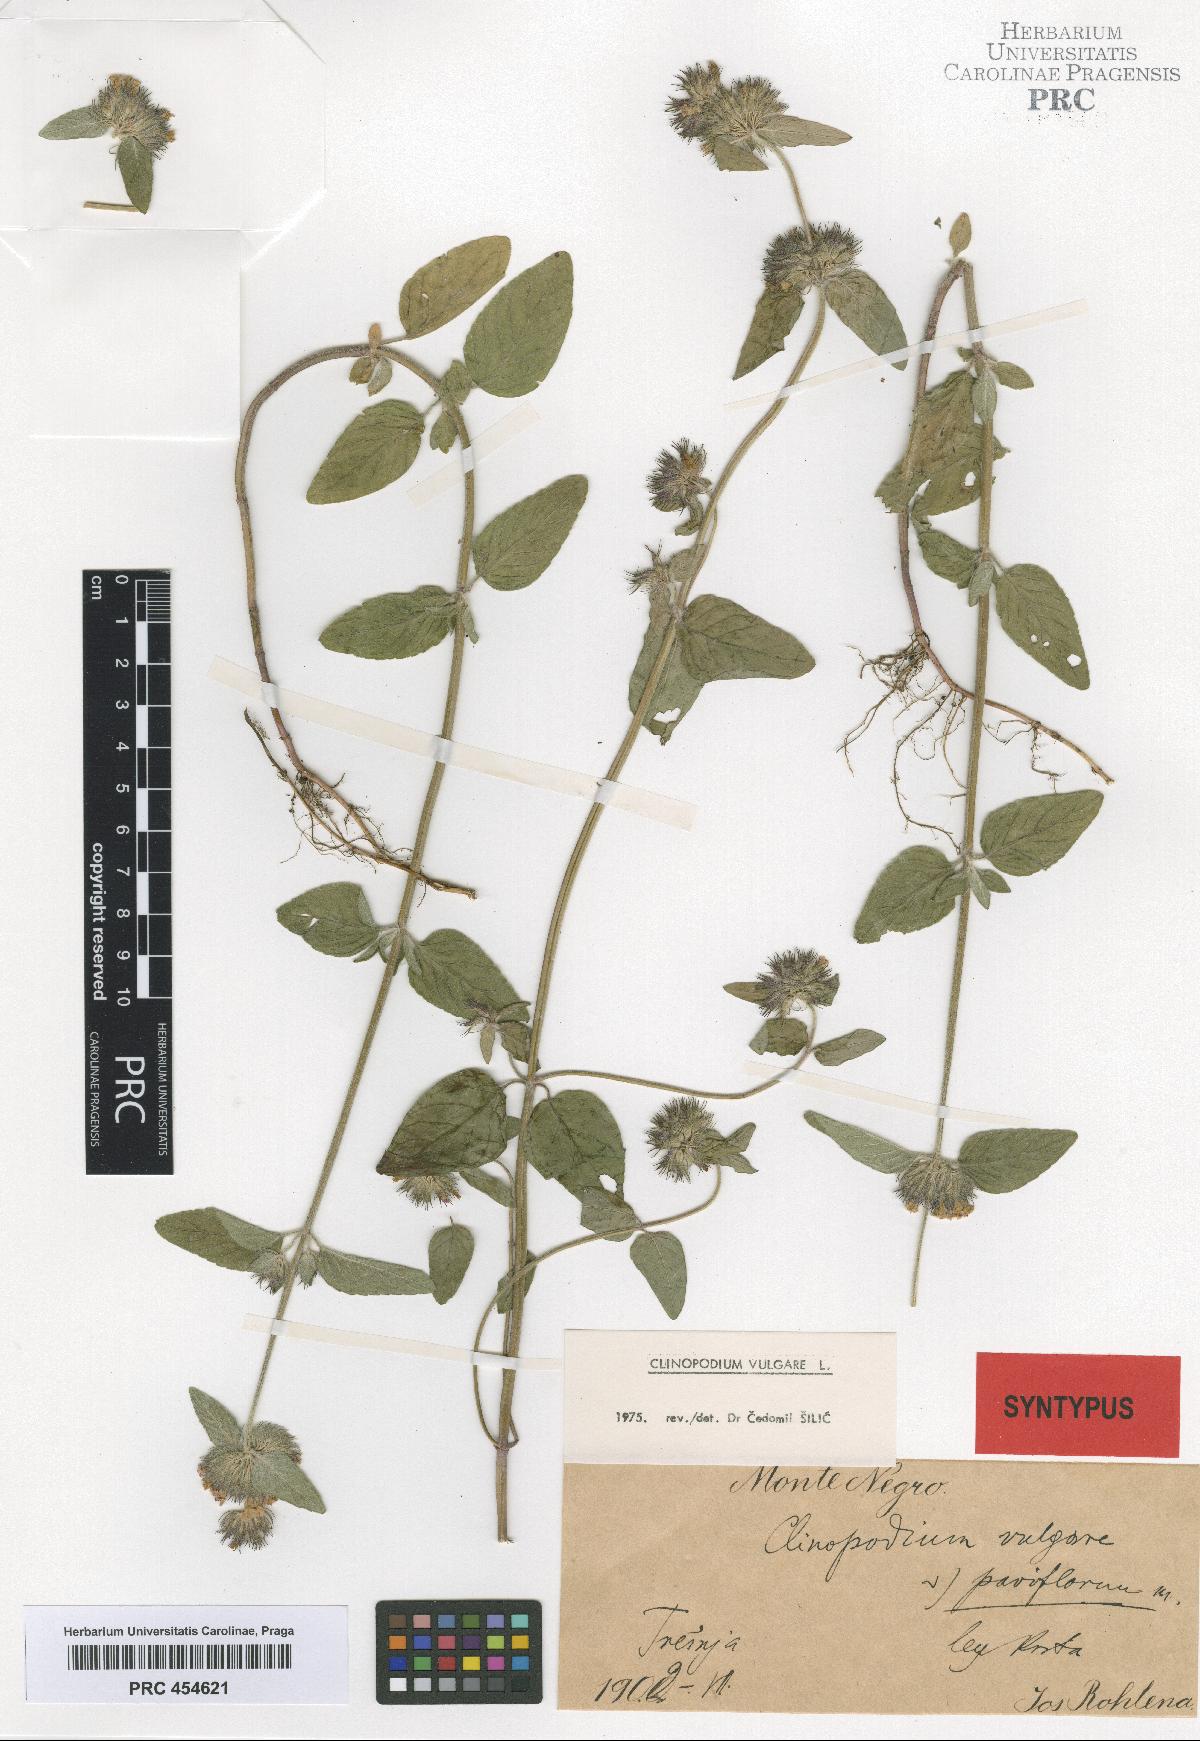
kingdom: Plantae
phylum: Tracheophyta
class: Magnoliopsida
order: Lamiales
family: Lamiaceae
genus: Clinopodium
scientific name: Clinopodium vulgare
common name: Wild basil
